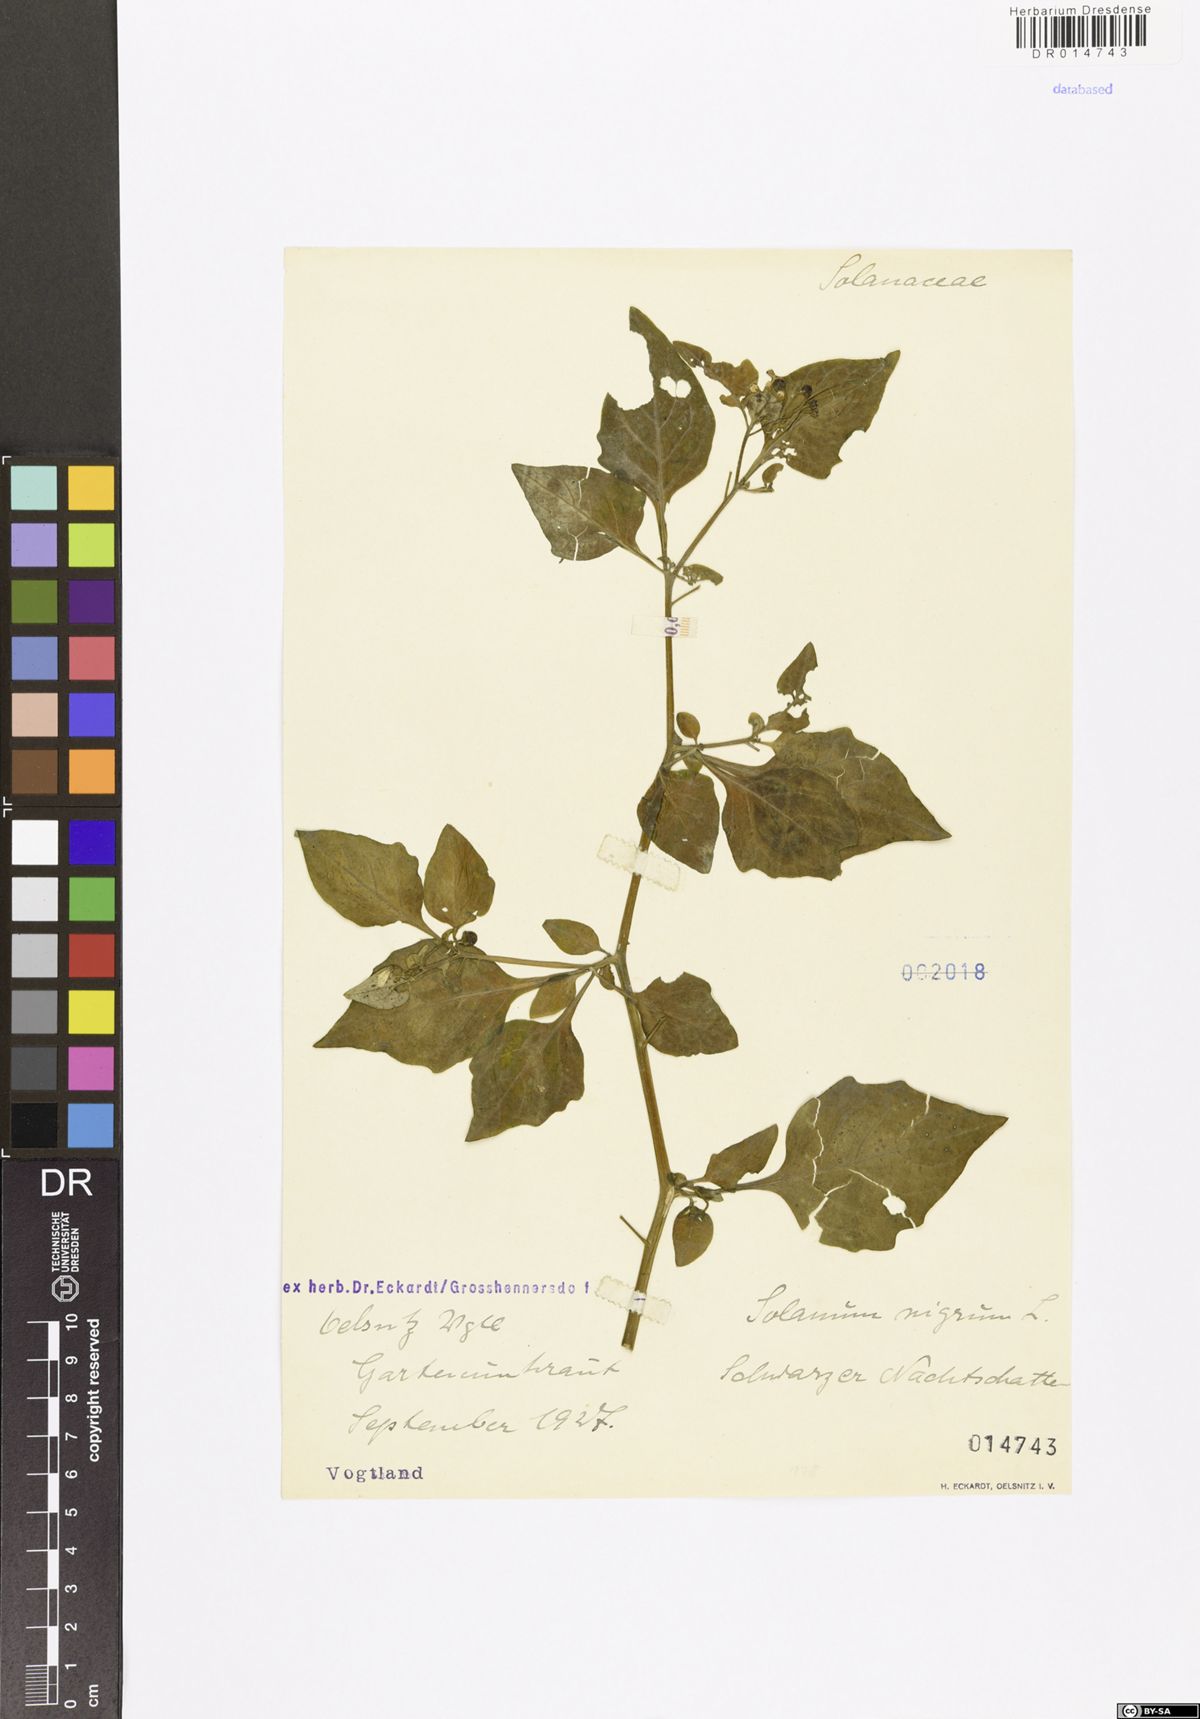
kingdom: Plantae
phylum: Tracheophyta
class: Magnoliopsida
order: Solanales
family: Solanaceae
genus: Solanum
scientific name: Solanum nigrum
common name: Black nightshade
